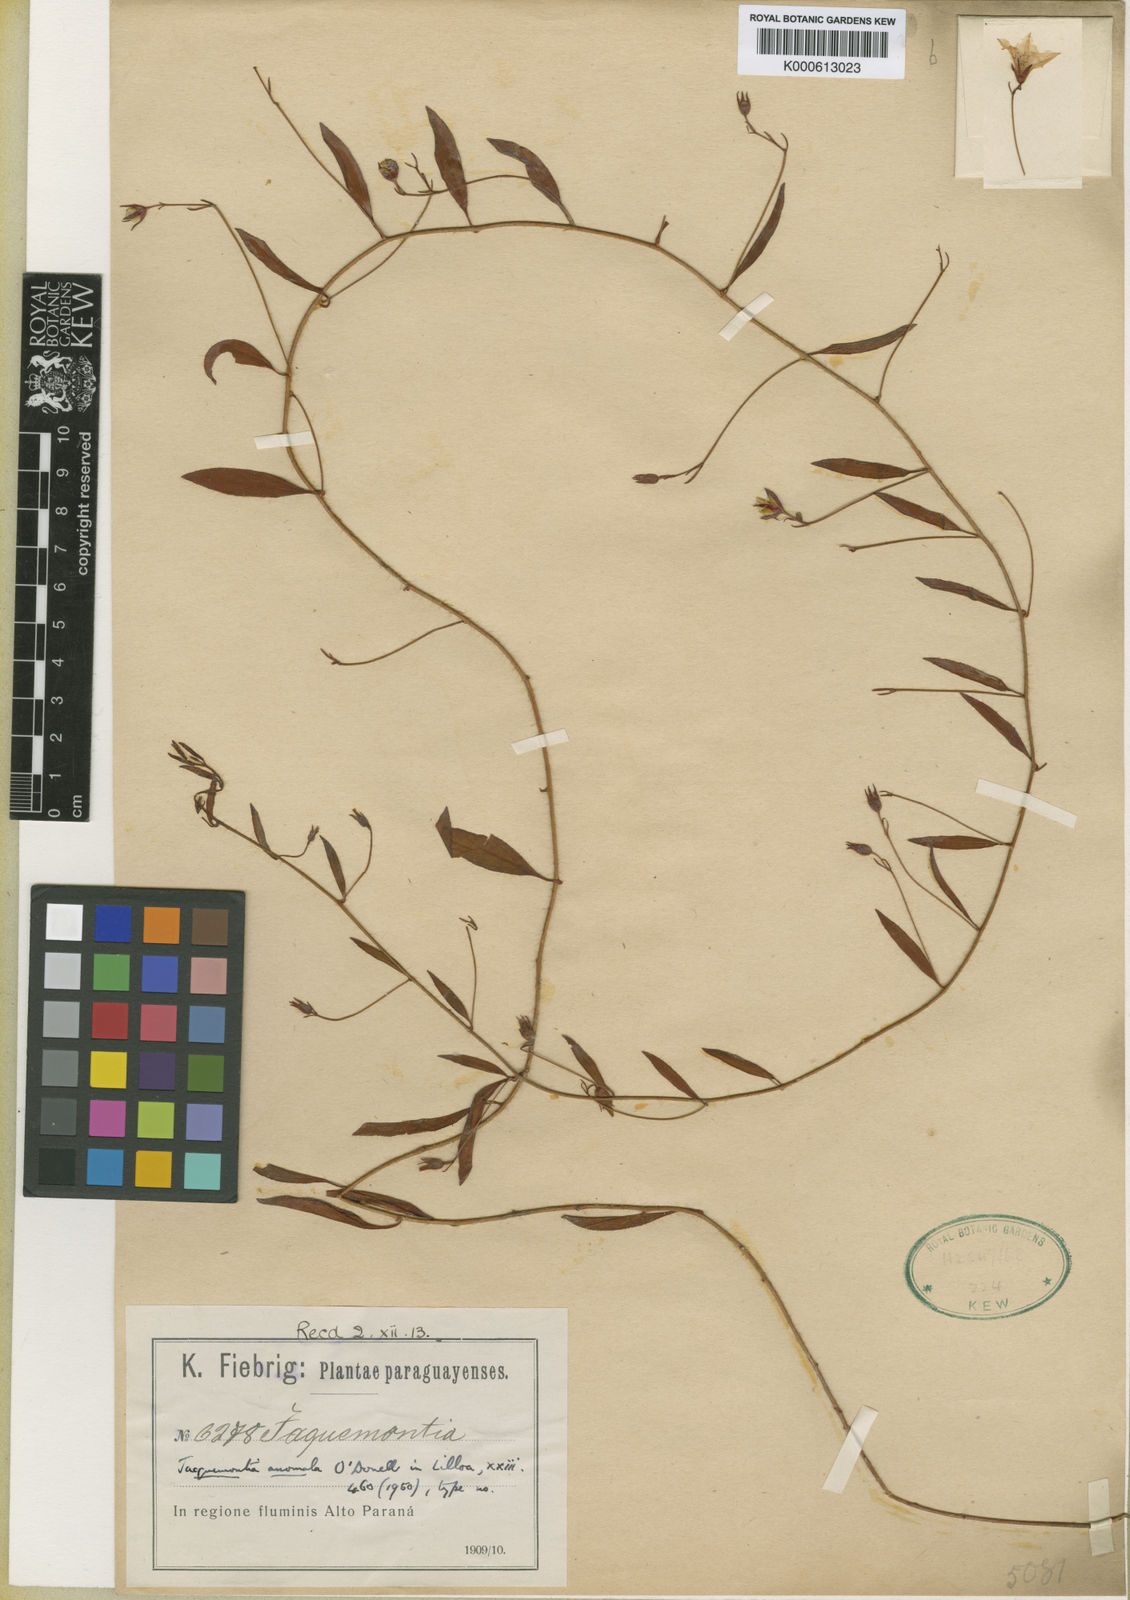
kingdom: Plantae
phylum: Tracheophyta
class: Magnoliopsida
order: Solanales
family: Convolvulaceae
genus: Jacquemontia
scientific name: Jacquemontia anomala
